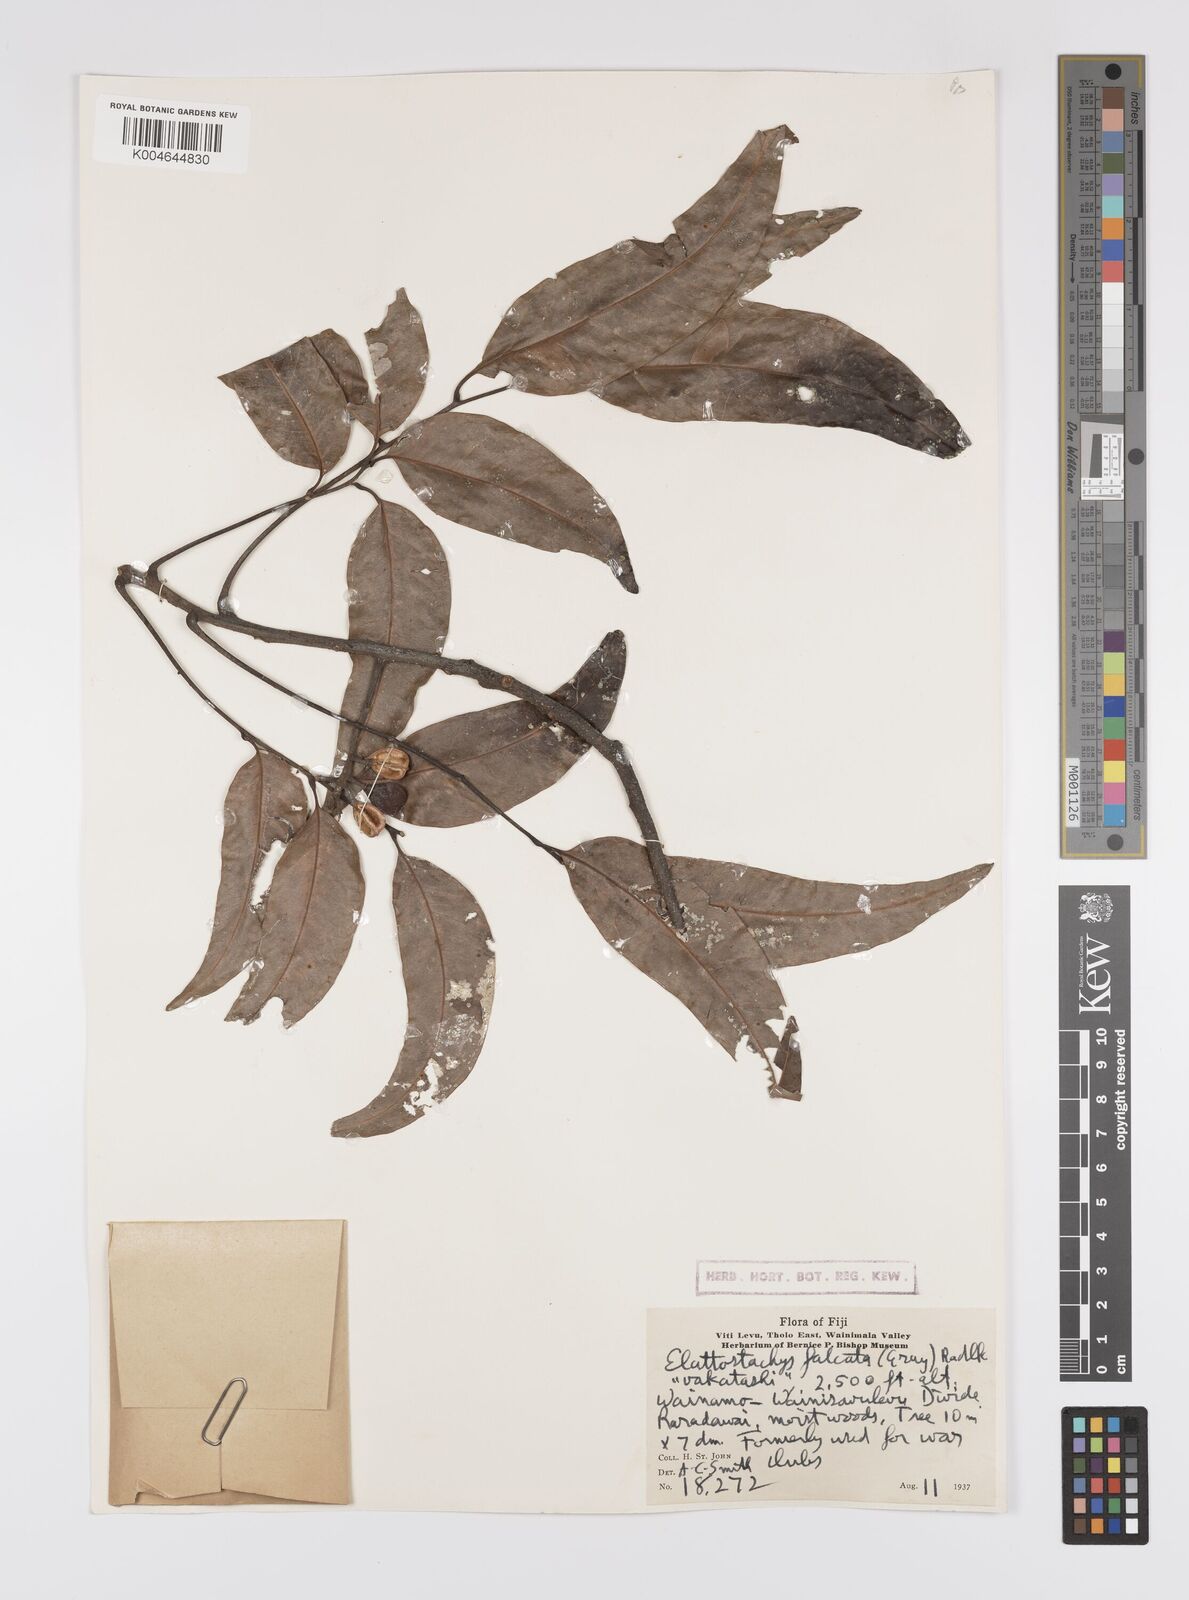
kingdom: Plantae
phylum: Tracheophyta
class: Magnoliopsida
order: Sapindales
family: Sapindaceae
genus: Elattostachys
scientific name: Elattostachys apetala
